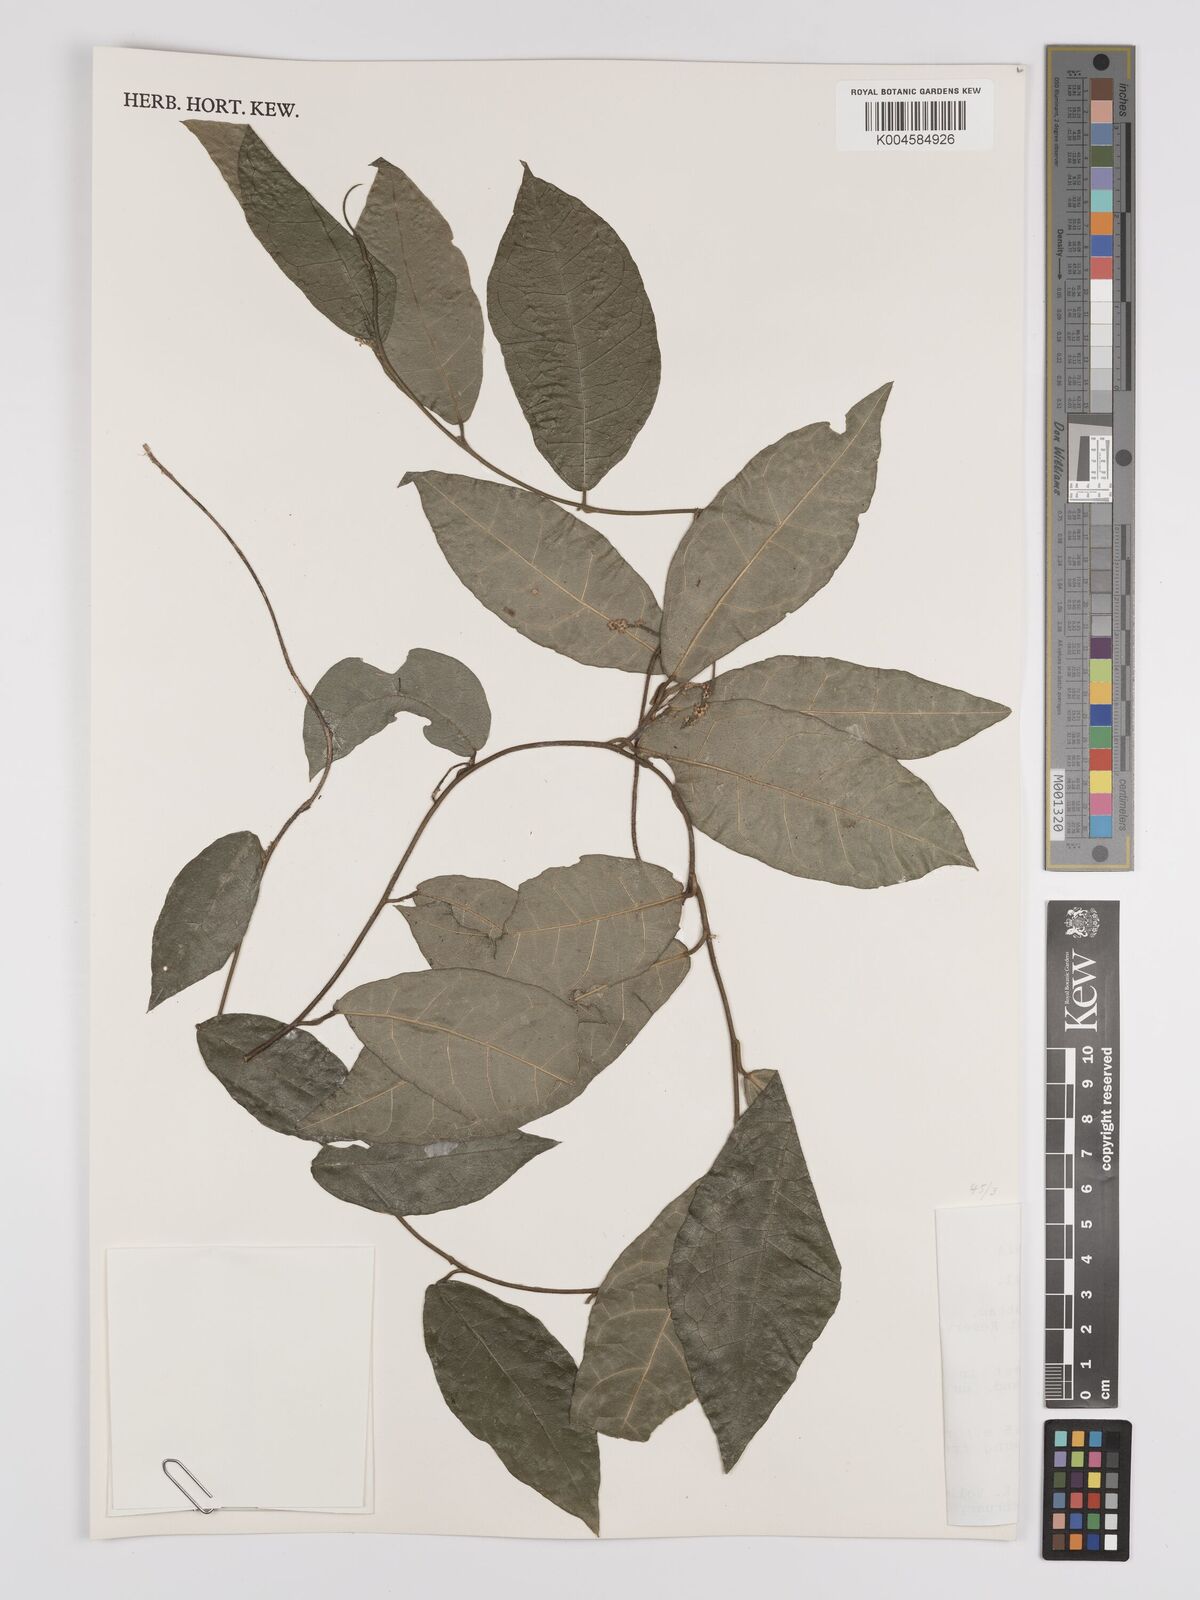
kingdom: Plantae
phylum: Tracheophyta
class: Magnoliopsida
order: Icacinales
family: Icacinaceae
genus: Pyrenacantha
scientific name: Pyrenacantha vogeliana
